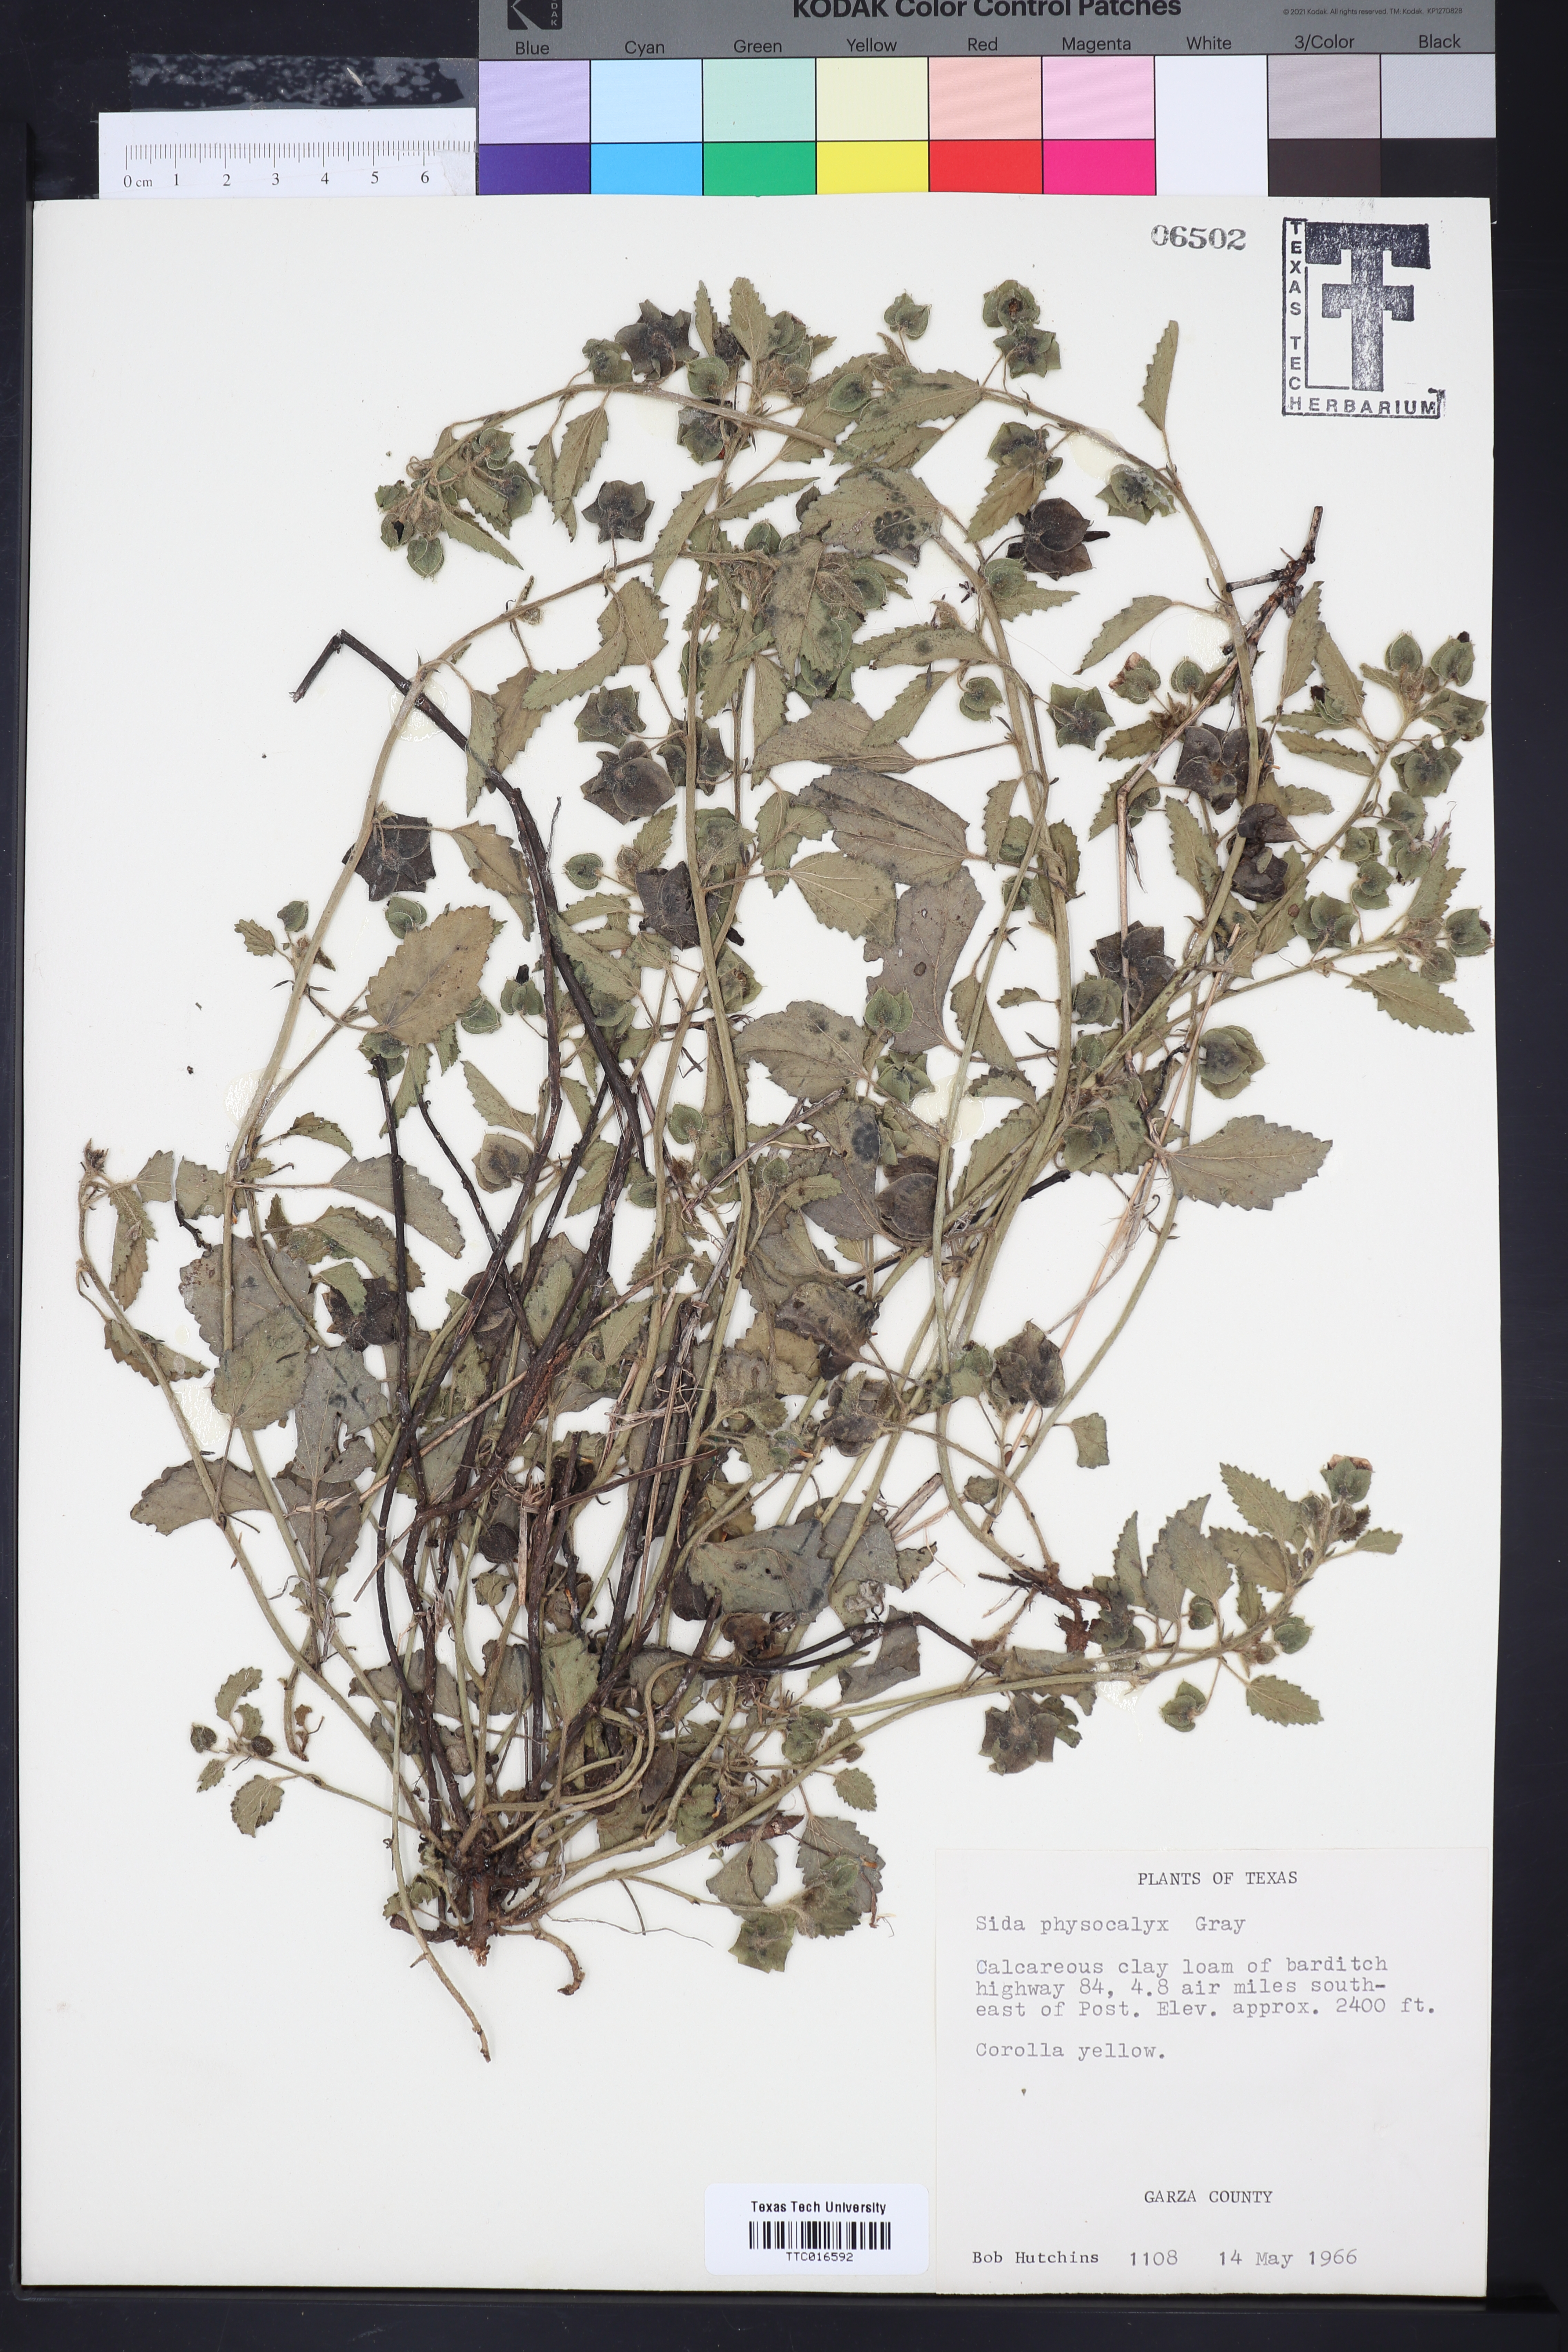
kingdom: Plantae
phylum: Tracheophyta
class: Magnoliopsida
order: Malvales
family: Malvaceae
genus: Rhynchosida
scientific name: Rhynchosida physocalyx
